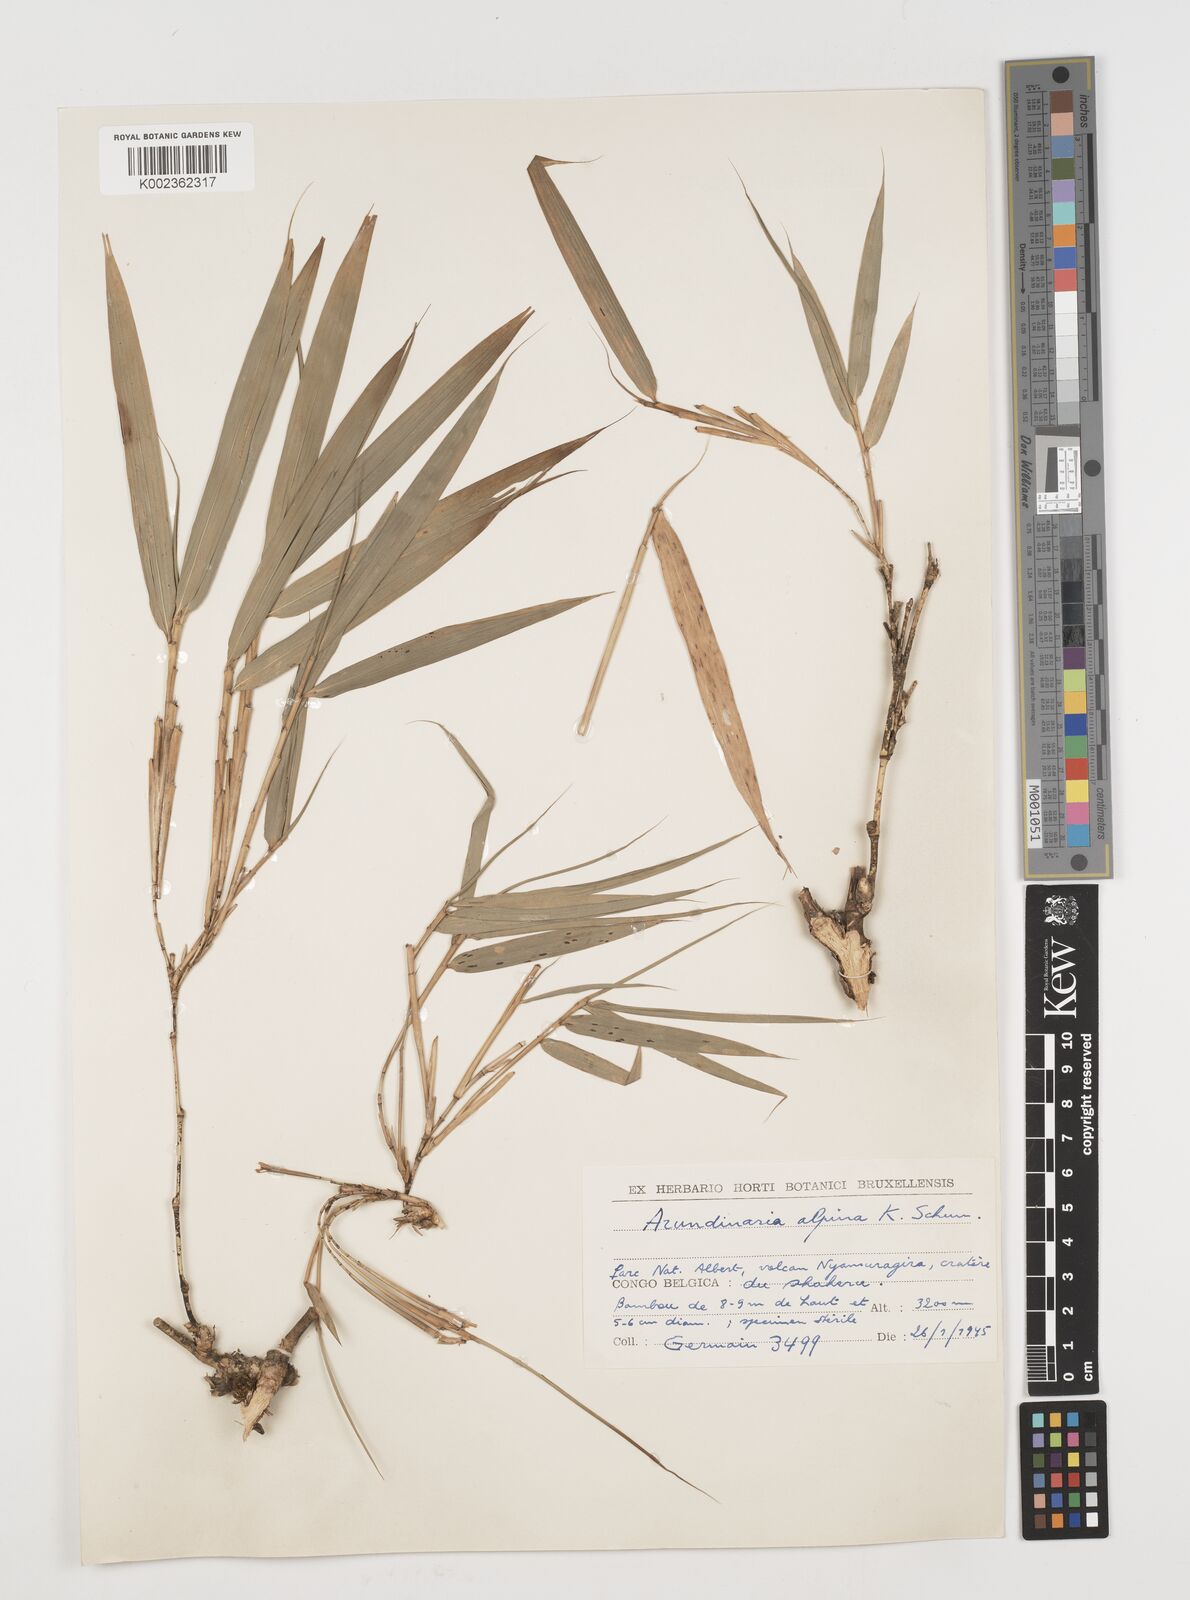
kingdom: Plantae
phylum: Tracheophyta
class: Liliopsida
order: Poales
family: Poaceae
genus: Oldeania
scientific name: Oldeania alpina
